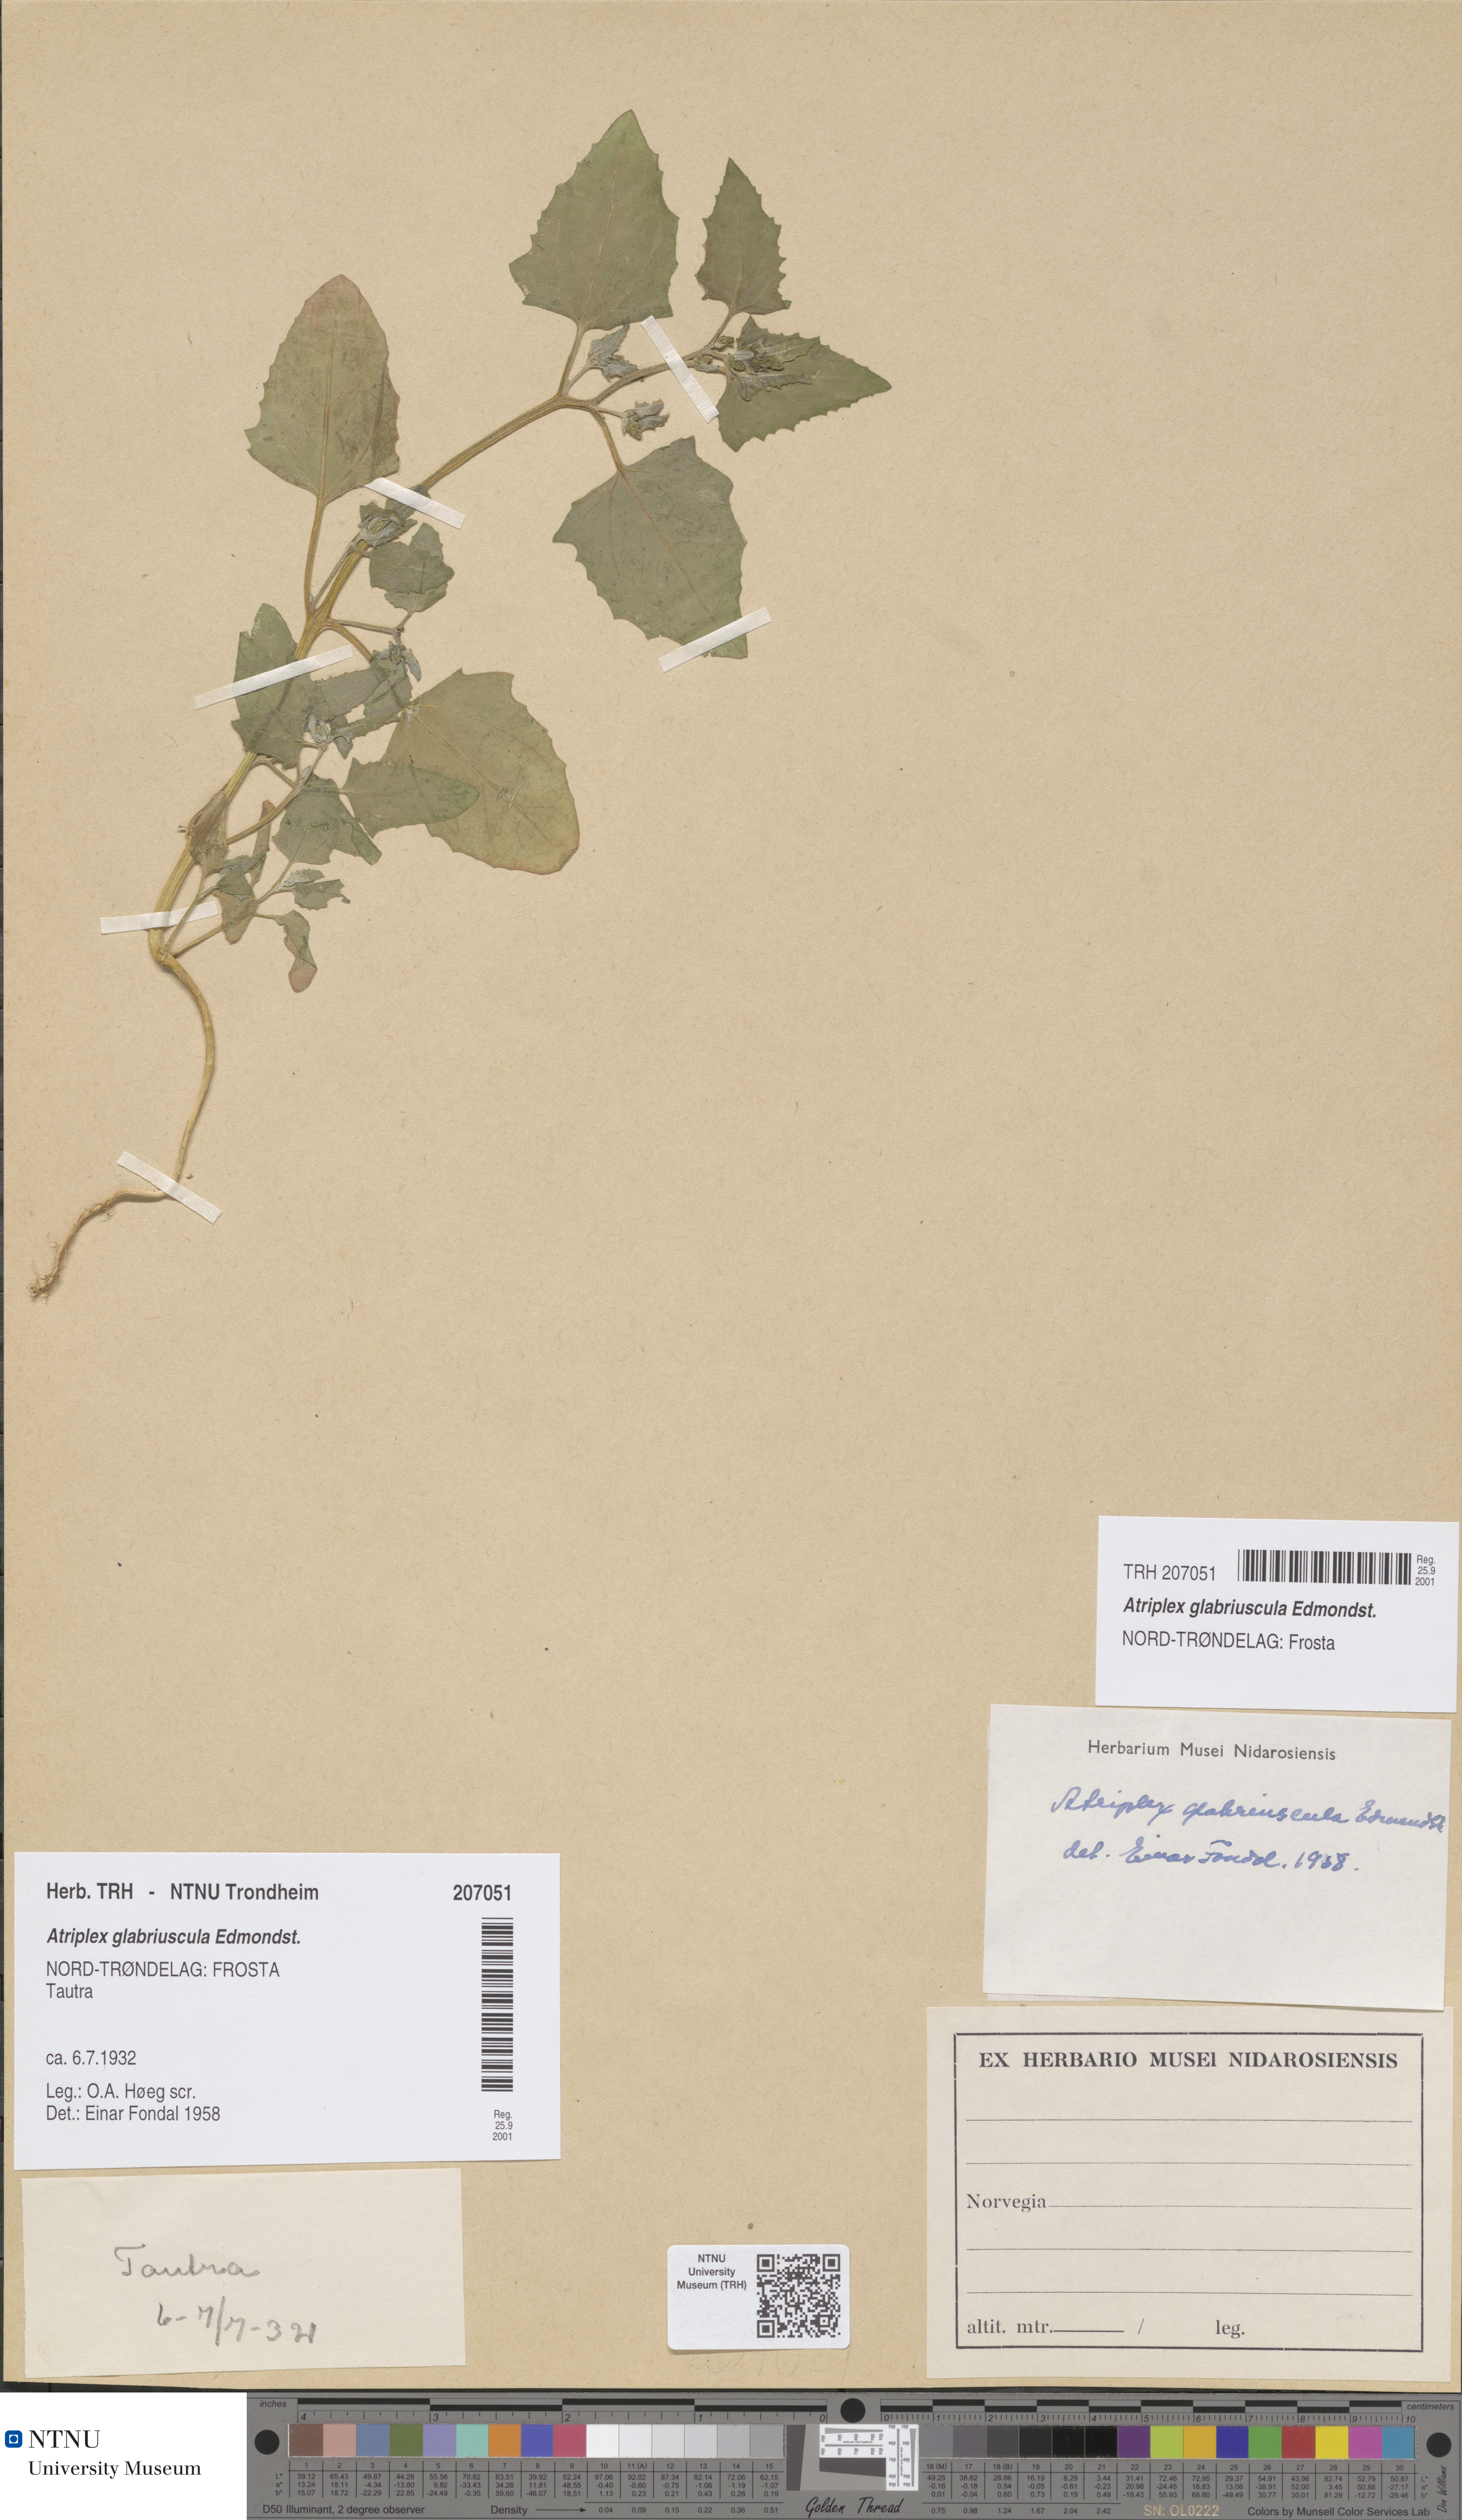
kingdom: Plantae
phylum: Tracheophyta
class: Magnoliopsida
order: Caryophyllales
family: Amaranthaceae
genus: Atriplex
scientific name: Atriplex glabriuscula
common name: Babington's orache
